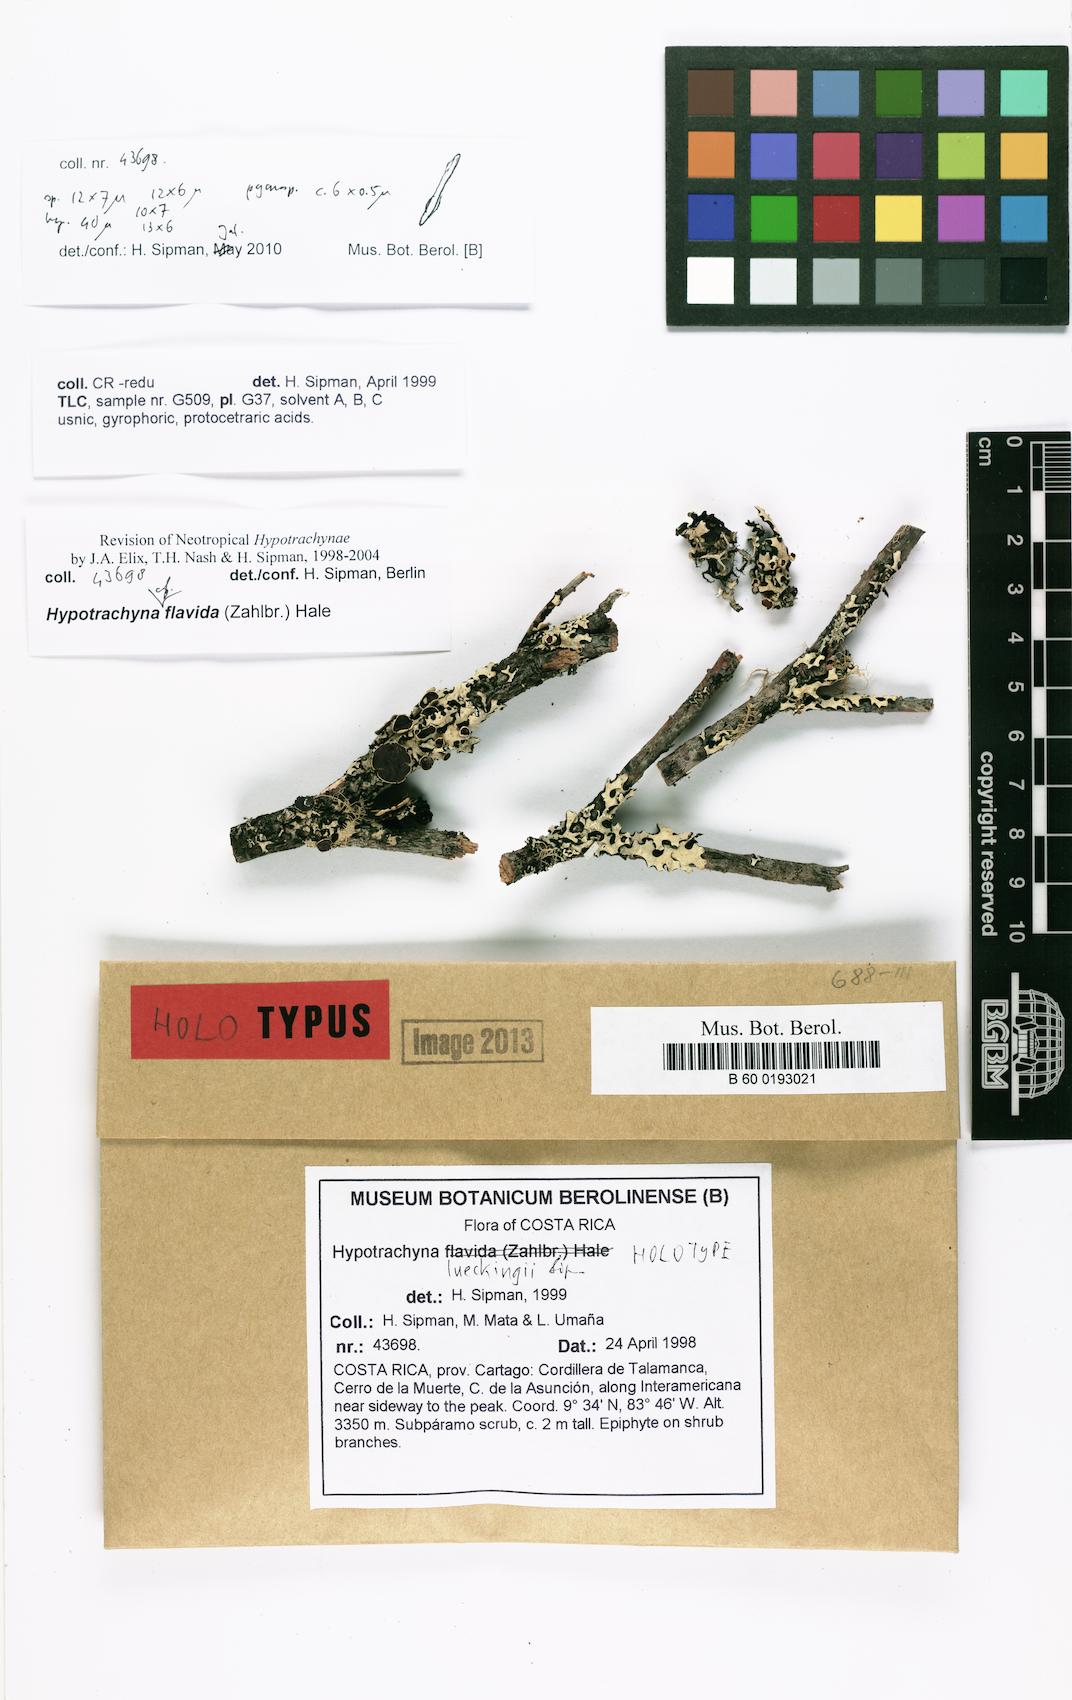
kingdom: Fungi
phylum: Ascomycota
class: Lecanoromycetes
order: Lecanorales
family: Parmeliaceae
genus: Hypotrachyna
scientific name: Hypotrachyna lueckingii
